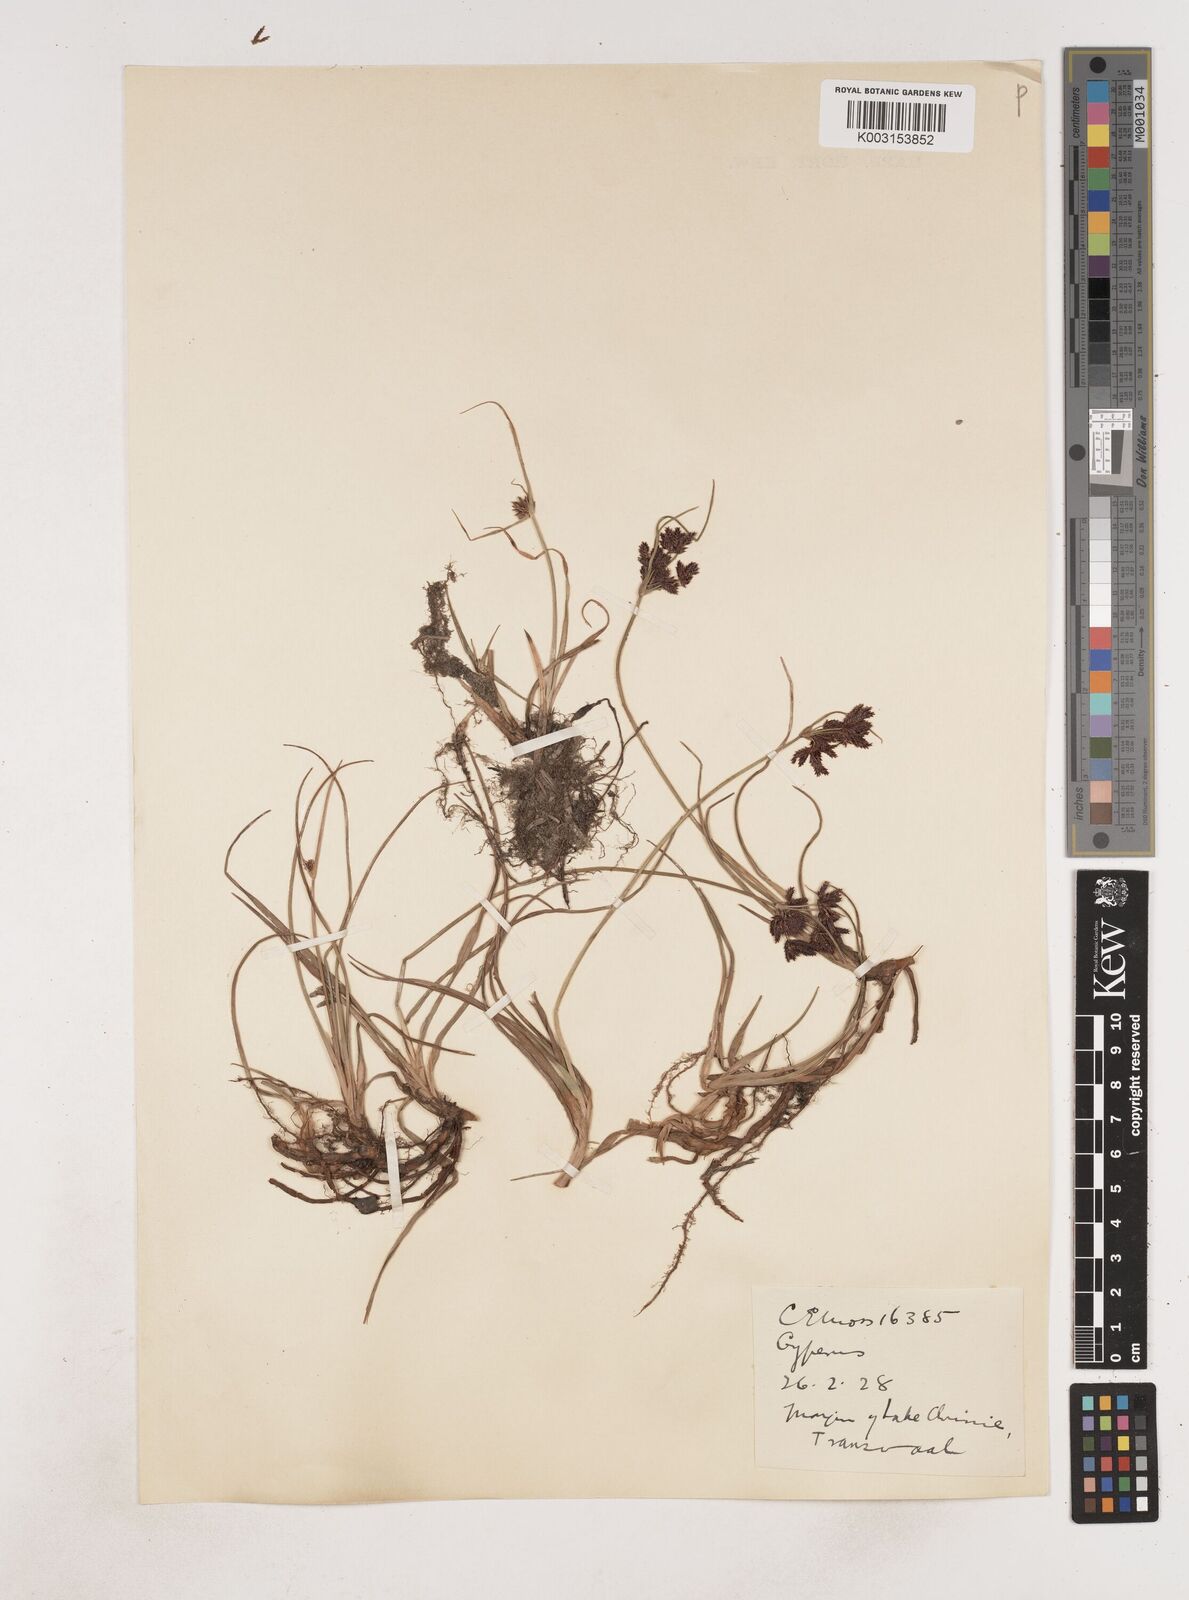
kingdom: Plantae
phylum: Tracheophyta
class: Liliopsida
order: Poales
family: Cyperaceae
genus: Cyperus
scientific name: Cyperus
